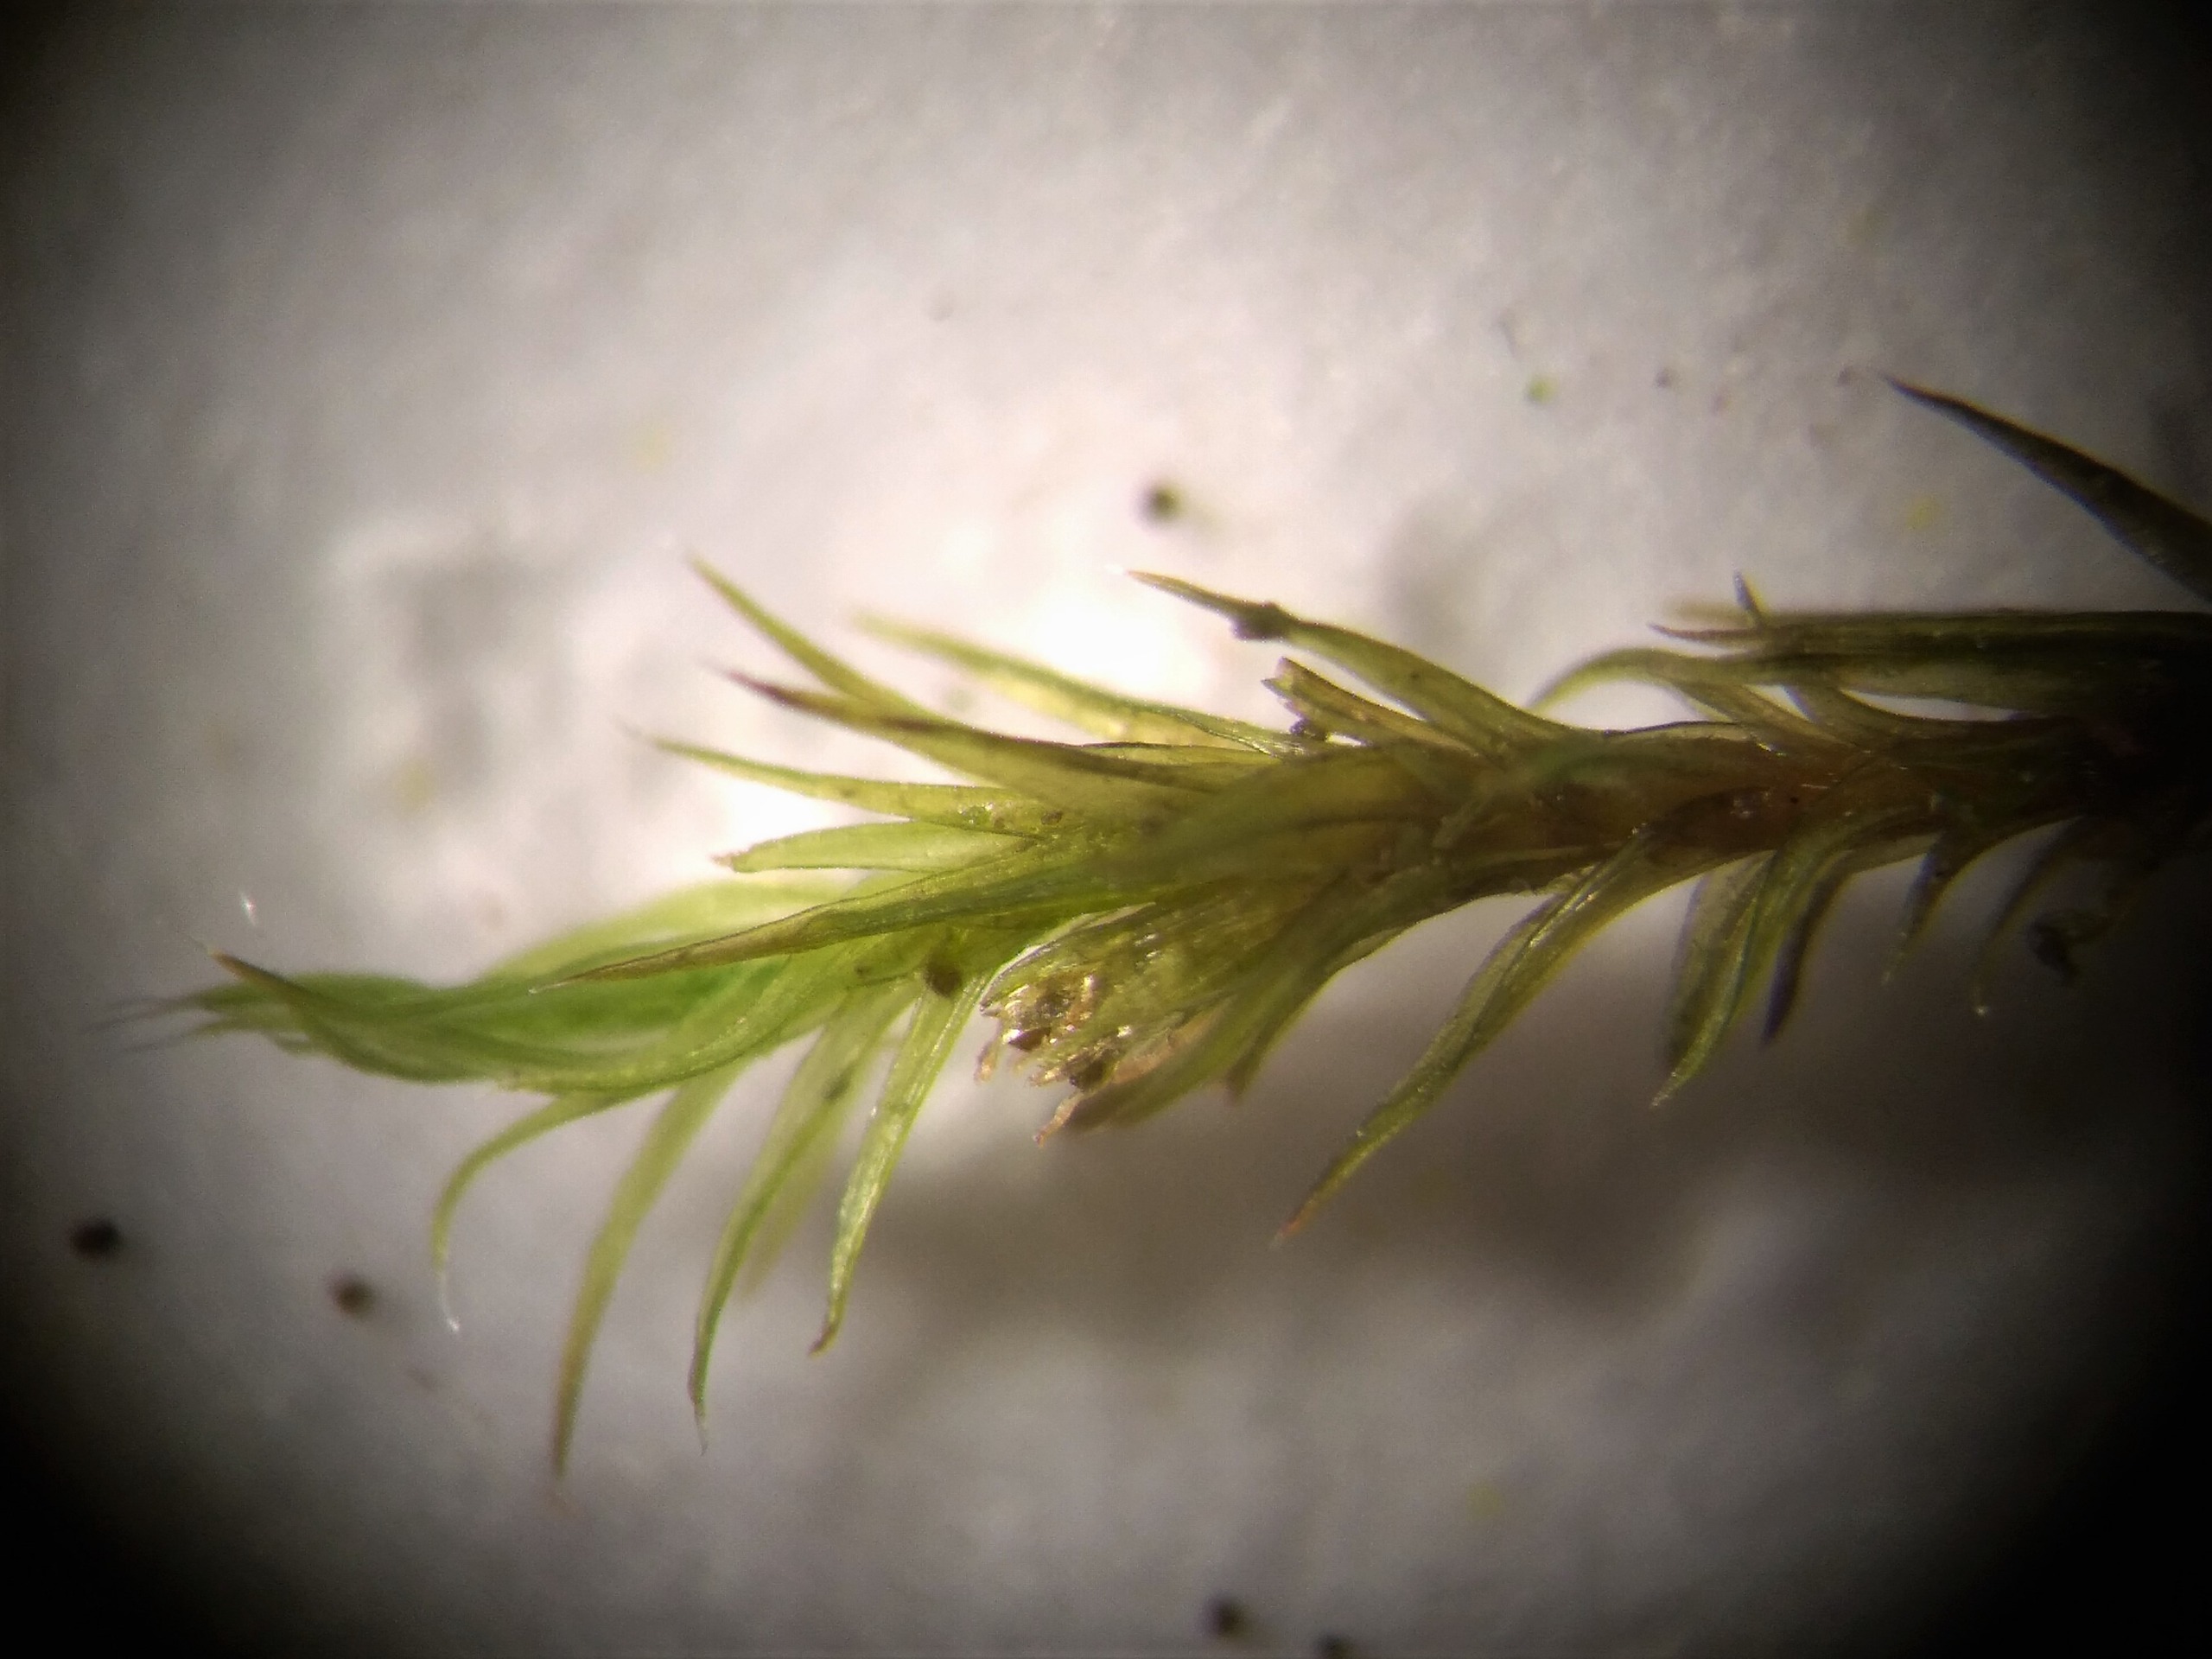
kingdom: Plantae
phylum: Bryophyta
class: Bryopsida
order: Grimmiales
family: Grimmiaceae
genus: Grimmia
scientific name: Grimmia hartmanii
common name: Hartmans gråmos
